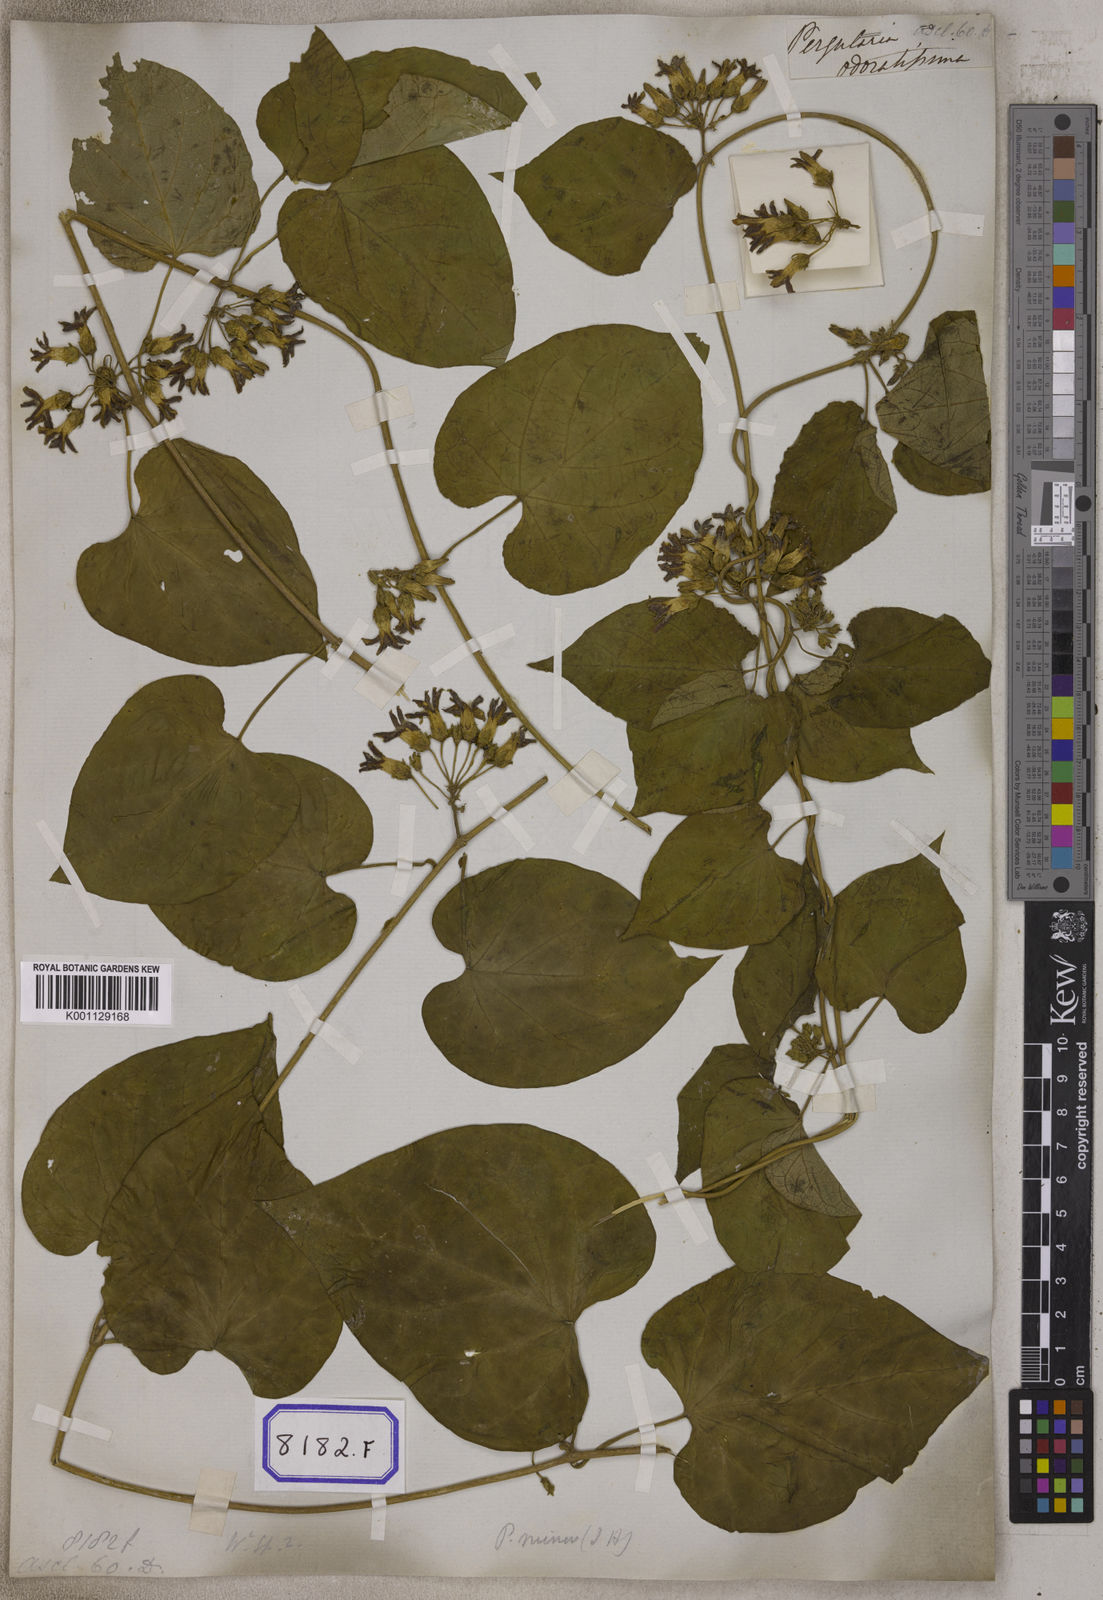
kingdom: Plantae
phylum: Tracheophyta
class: Magnoliopsida
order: Gentianales
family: Apocynaceae
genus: Telosma
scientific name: Telosma cordata
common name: Chinese-violet
